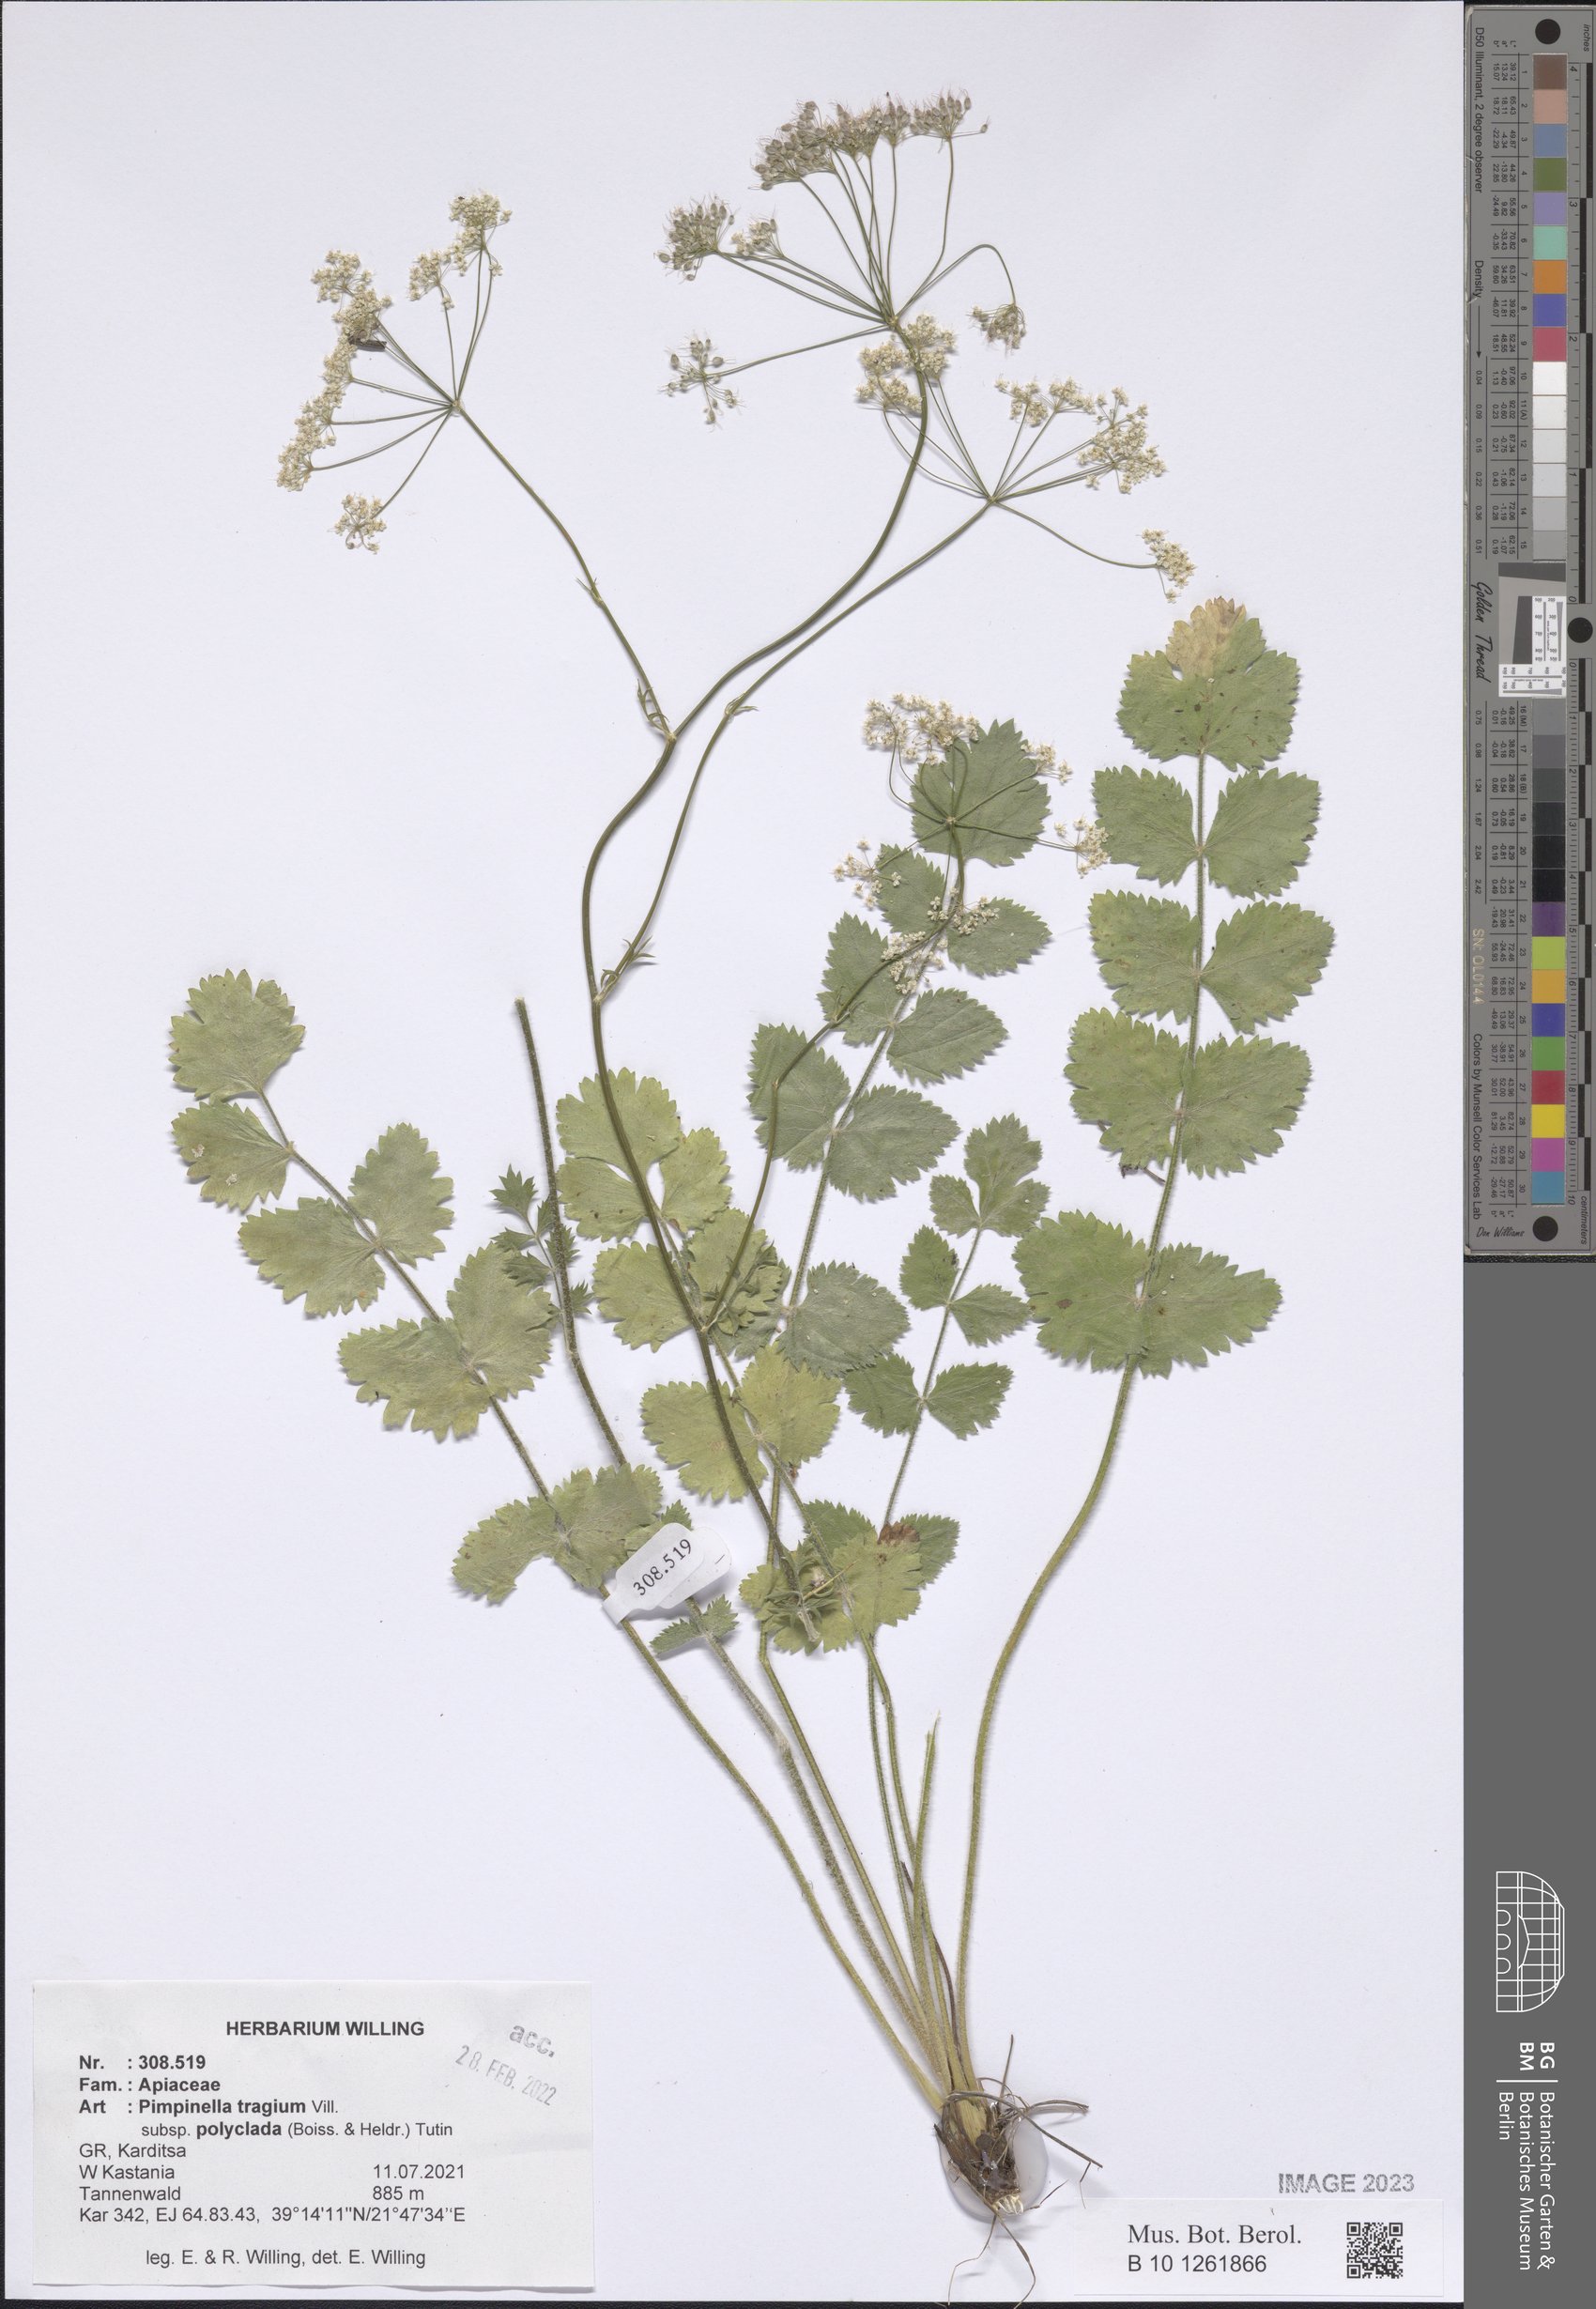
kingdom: Plantae
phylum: Tracheophyta
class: Magnoliopsida
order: Apiales
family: Apiaceae
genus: Pimpinella
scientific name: Pimpinella tragium
